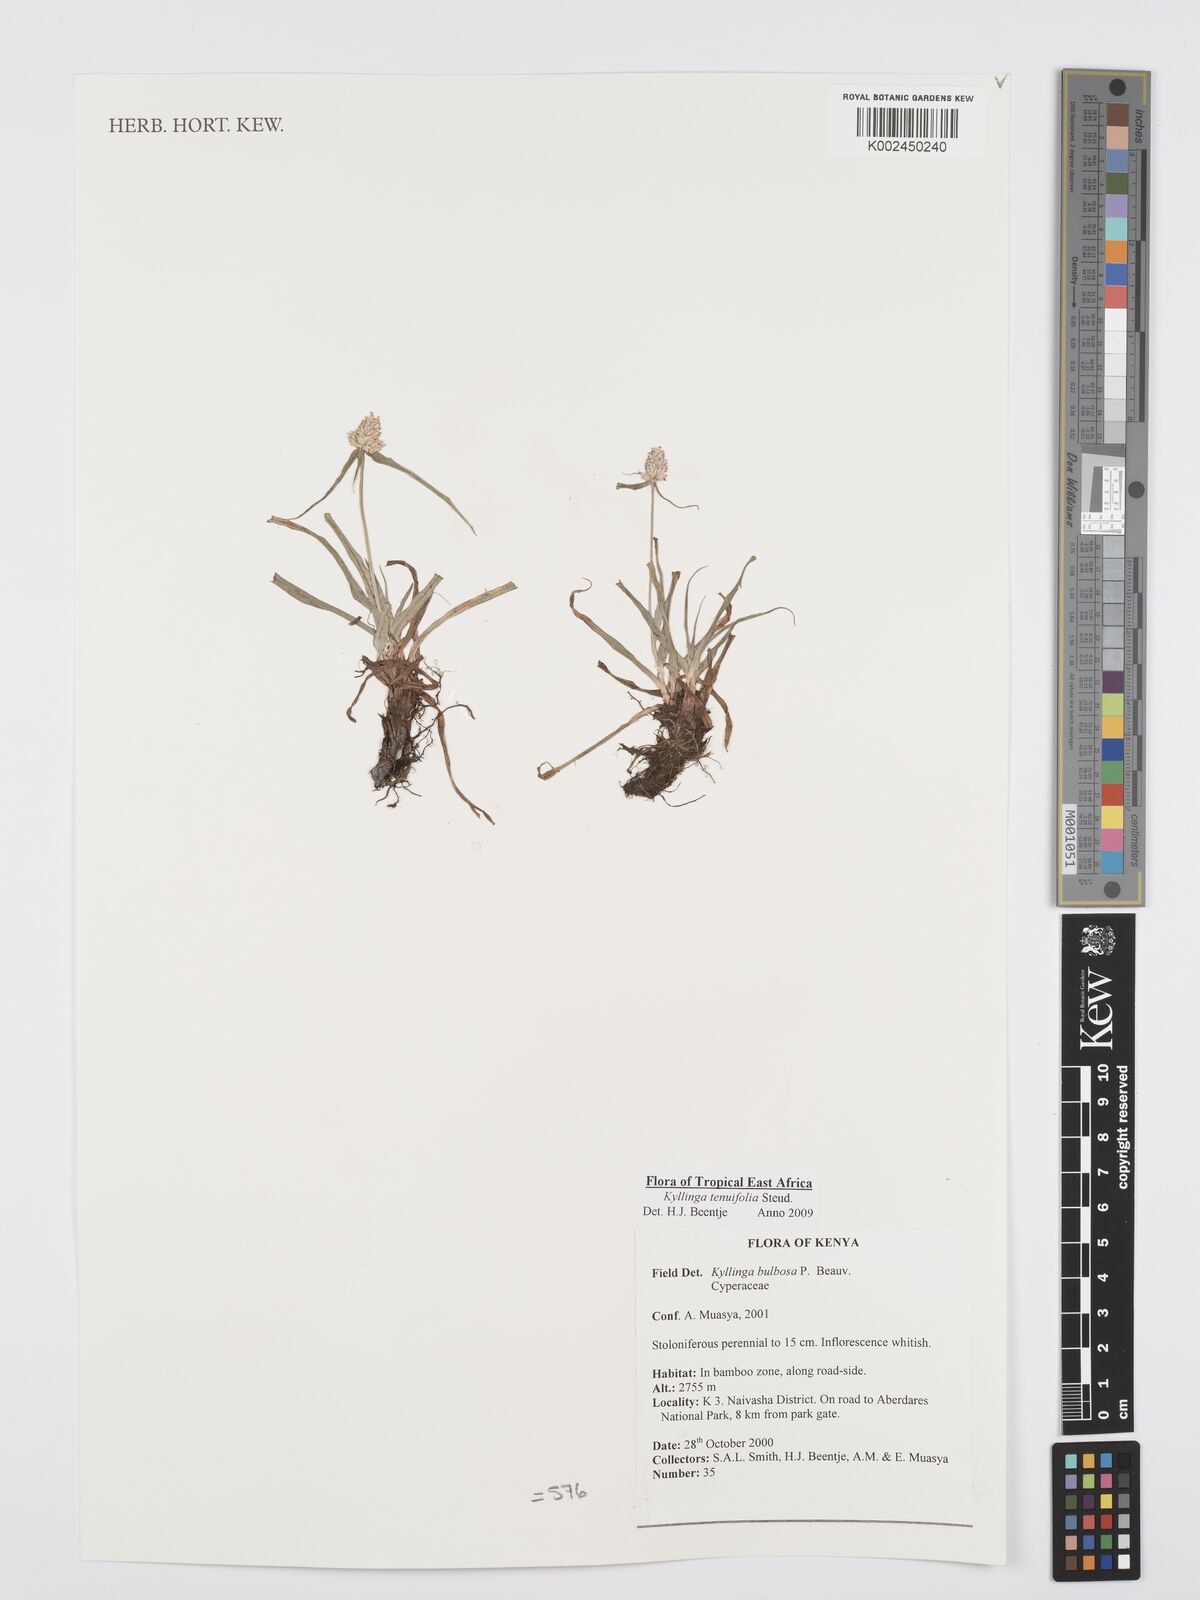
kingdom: Plantae
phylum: Tracheophyta
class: Liliopsida
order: Poales
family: Cyperaceae
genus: Cyperus
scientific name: Cyperus
